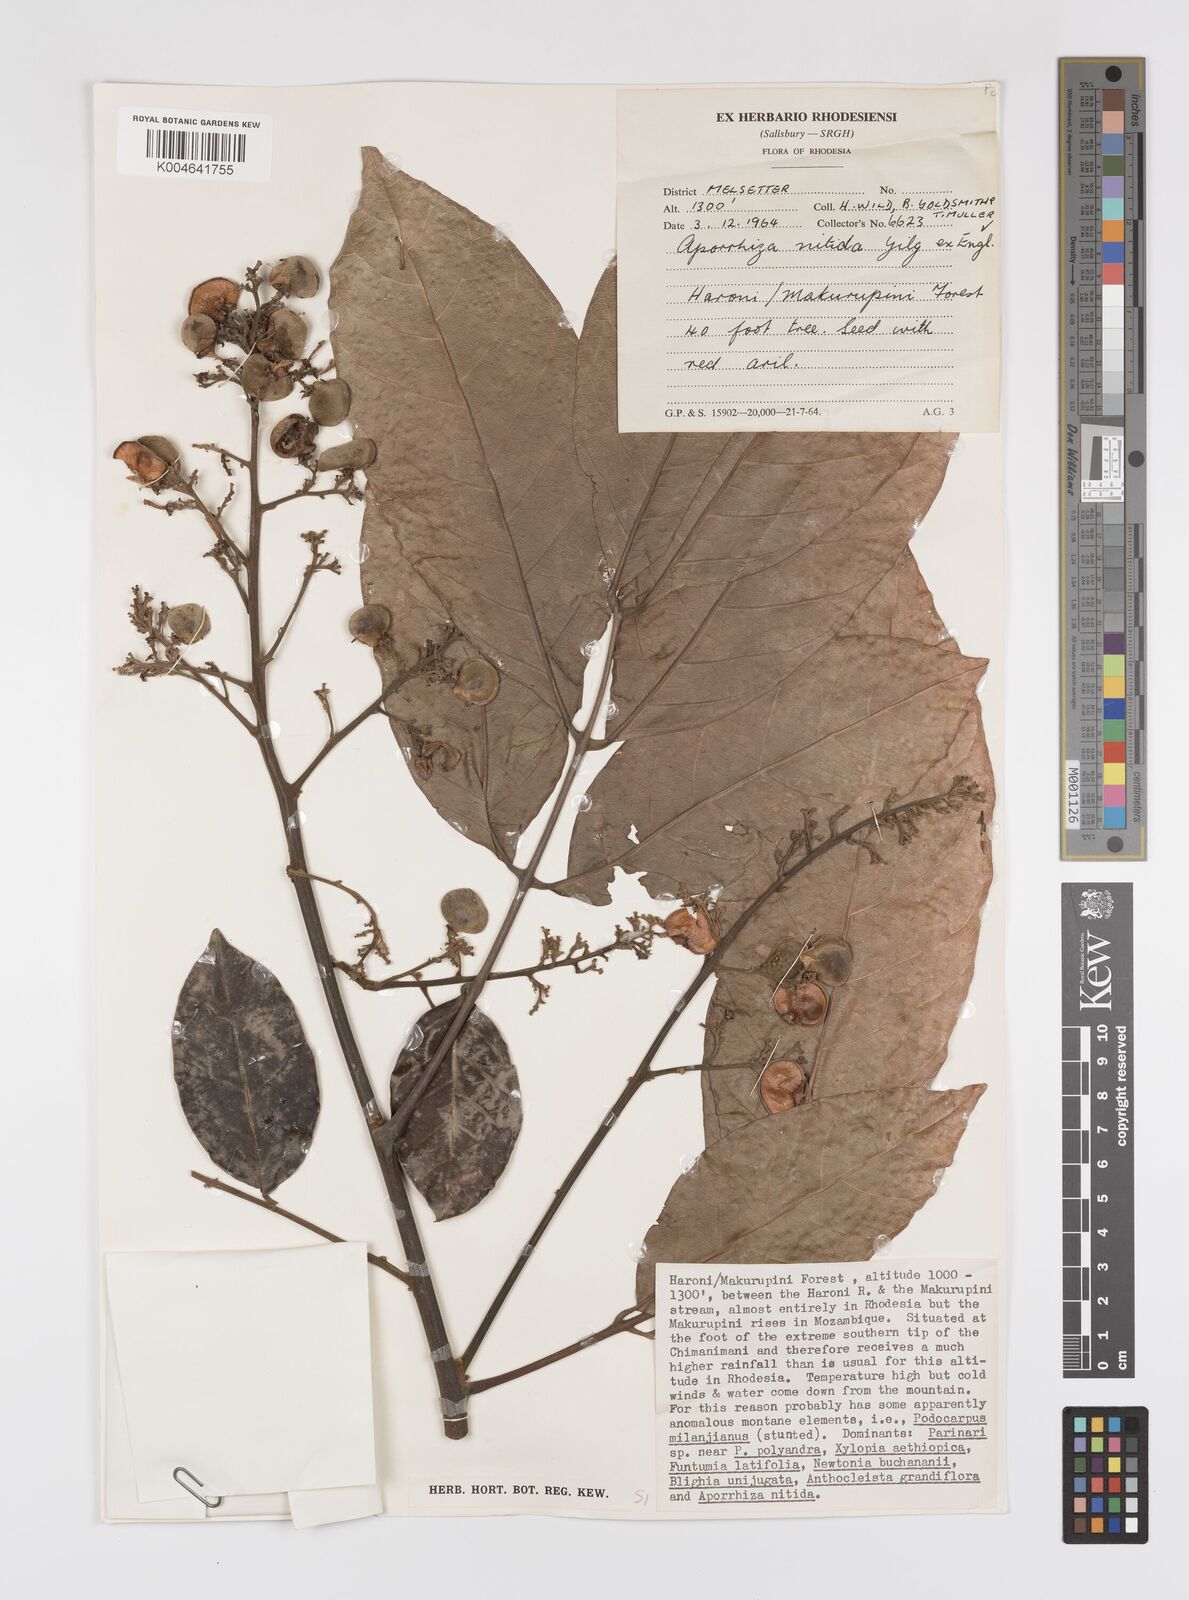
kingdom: Plantae
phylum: Tracheophyta
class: Magnoliopsida
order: Sapindales
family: Sapindaceae
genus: Aporrhiza
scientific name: Aporrhiza paniculata
